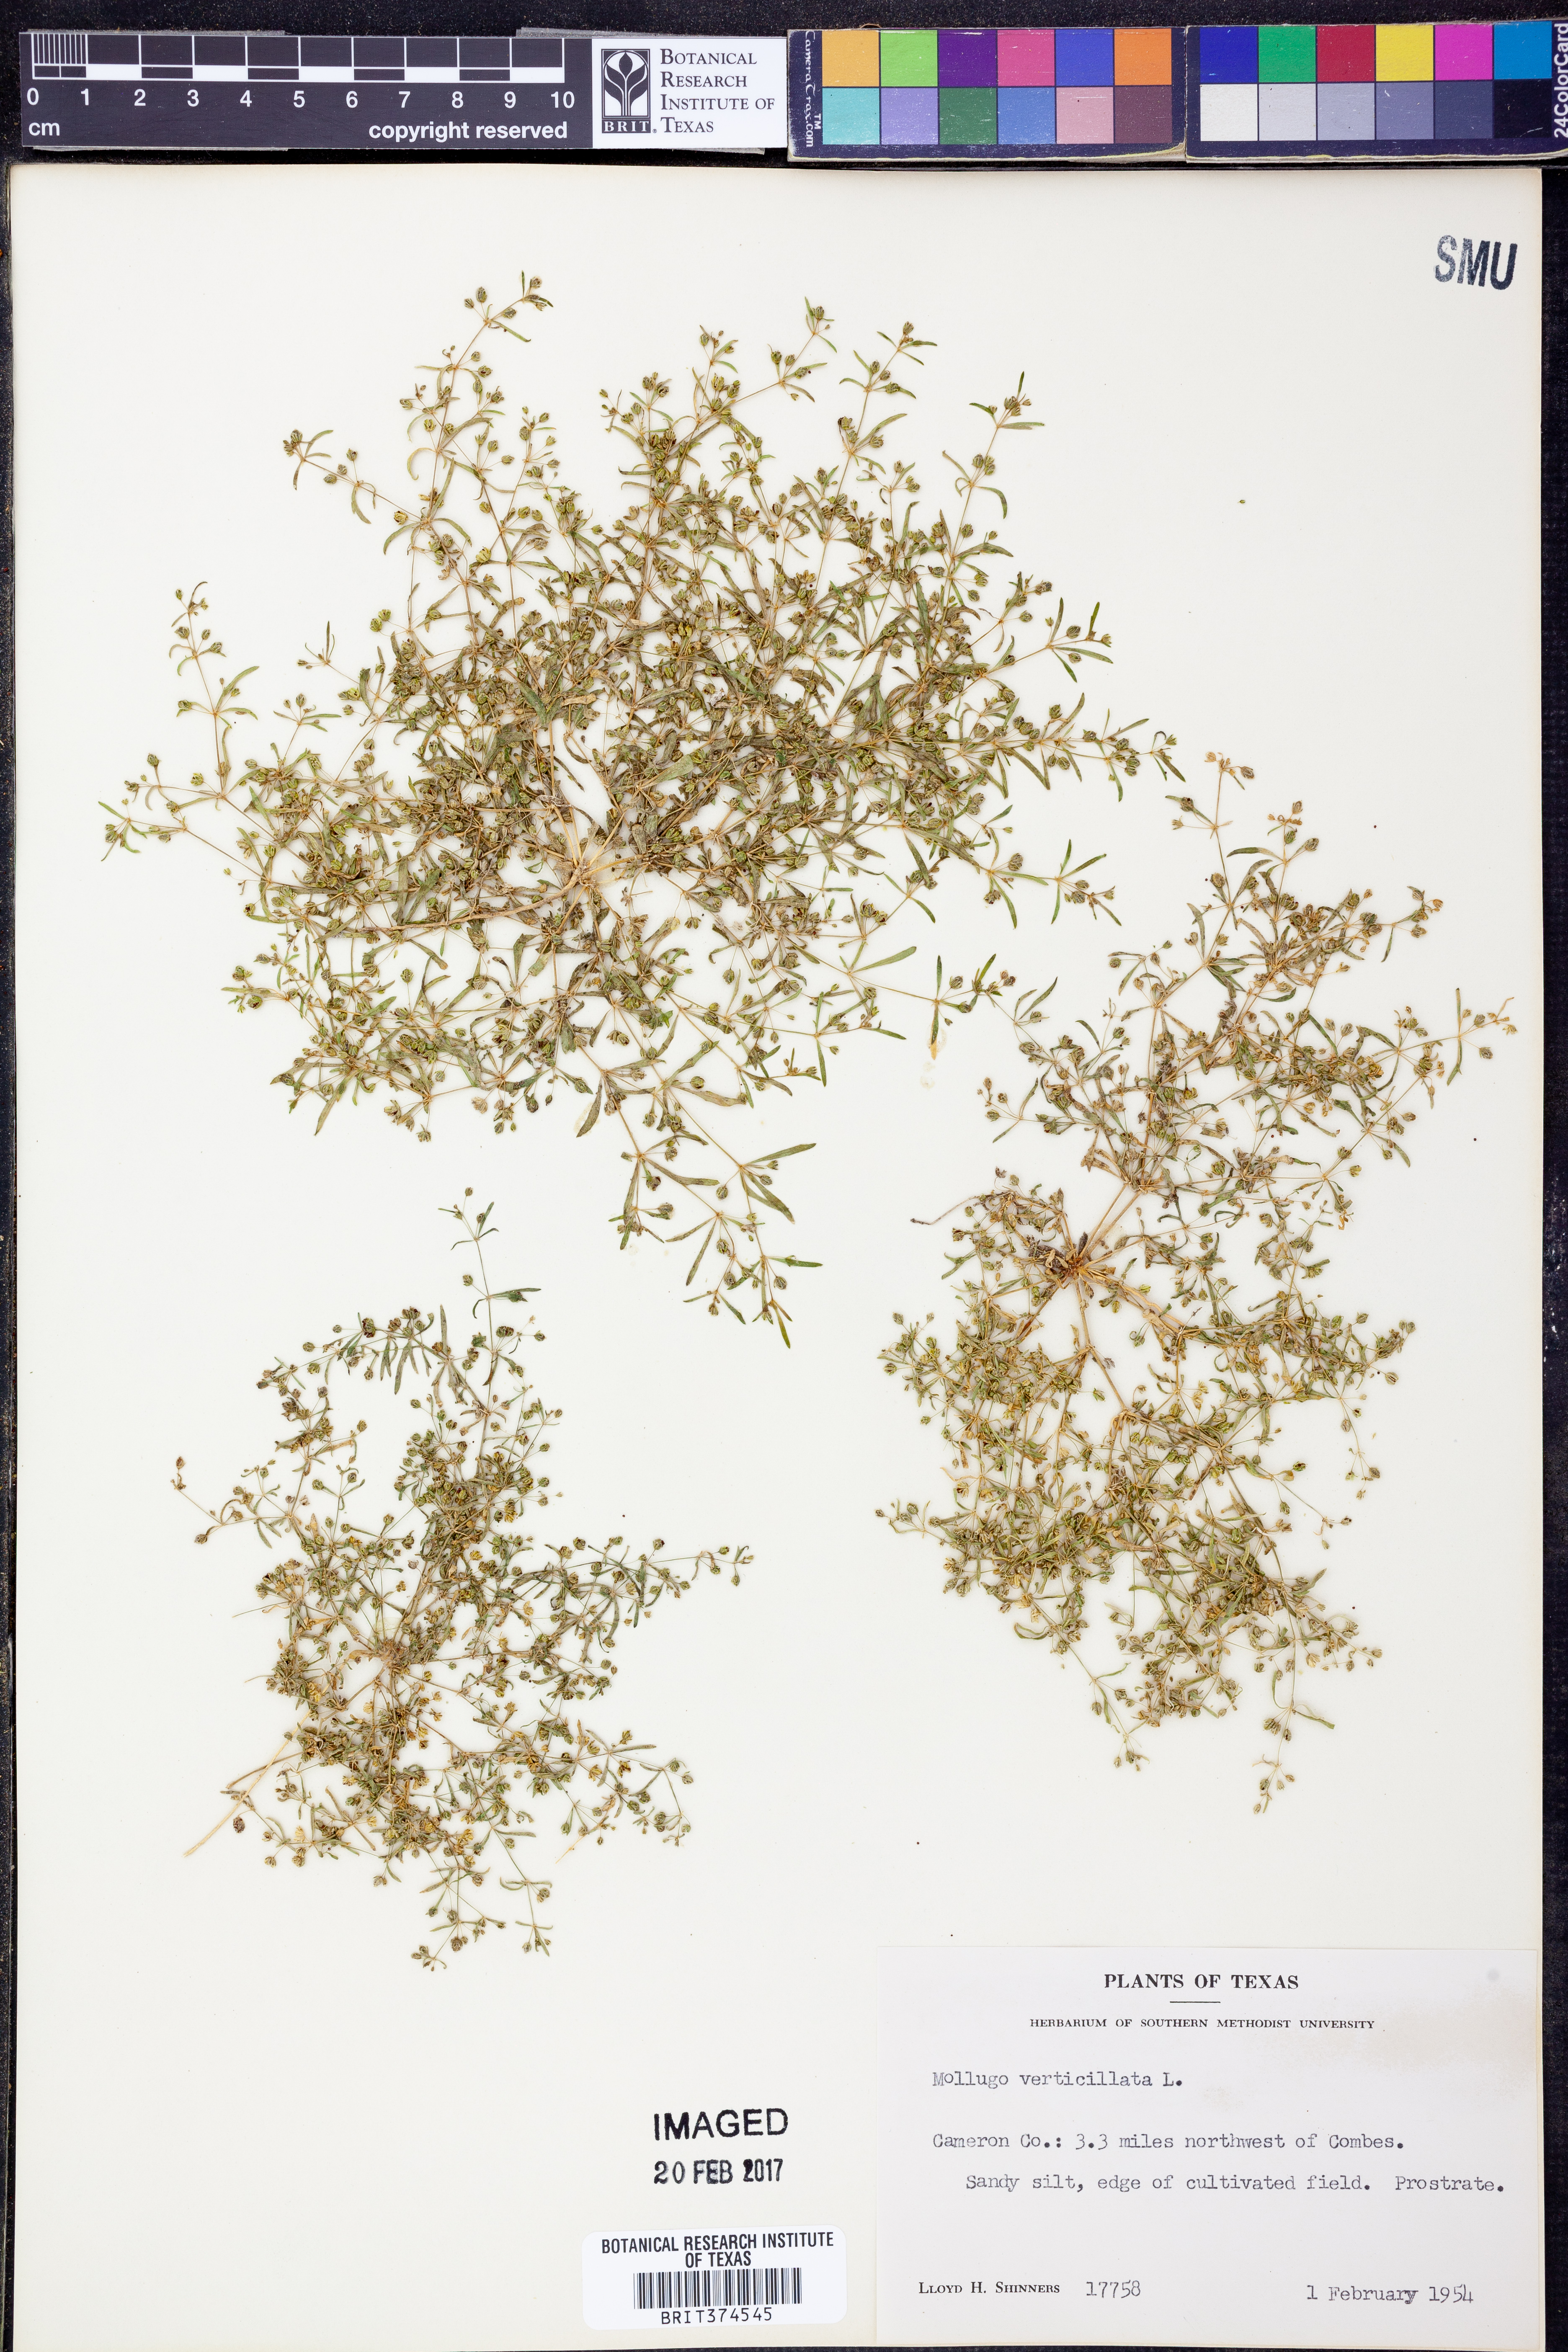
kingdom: Plantae
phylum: Tracheophyta
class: Magnoliopsida
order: Caryophyllales
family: Molluginaceae
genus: Mollugo
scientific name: Mollugo verticillata
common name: Green carpetweed
